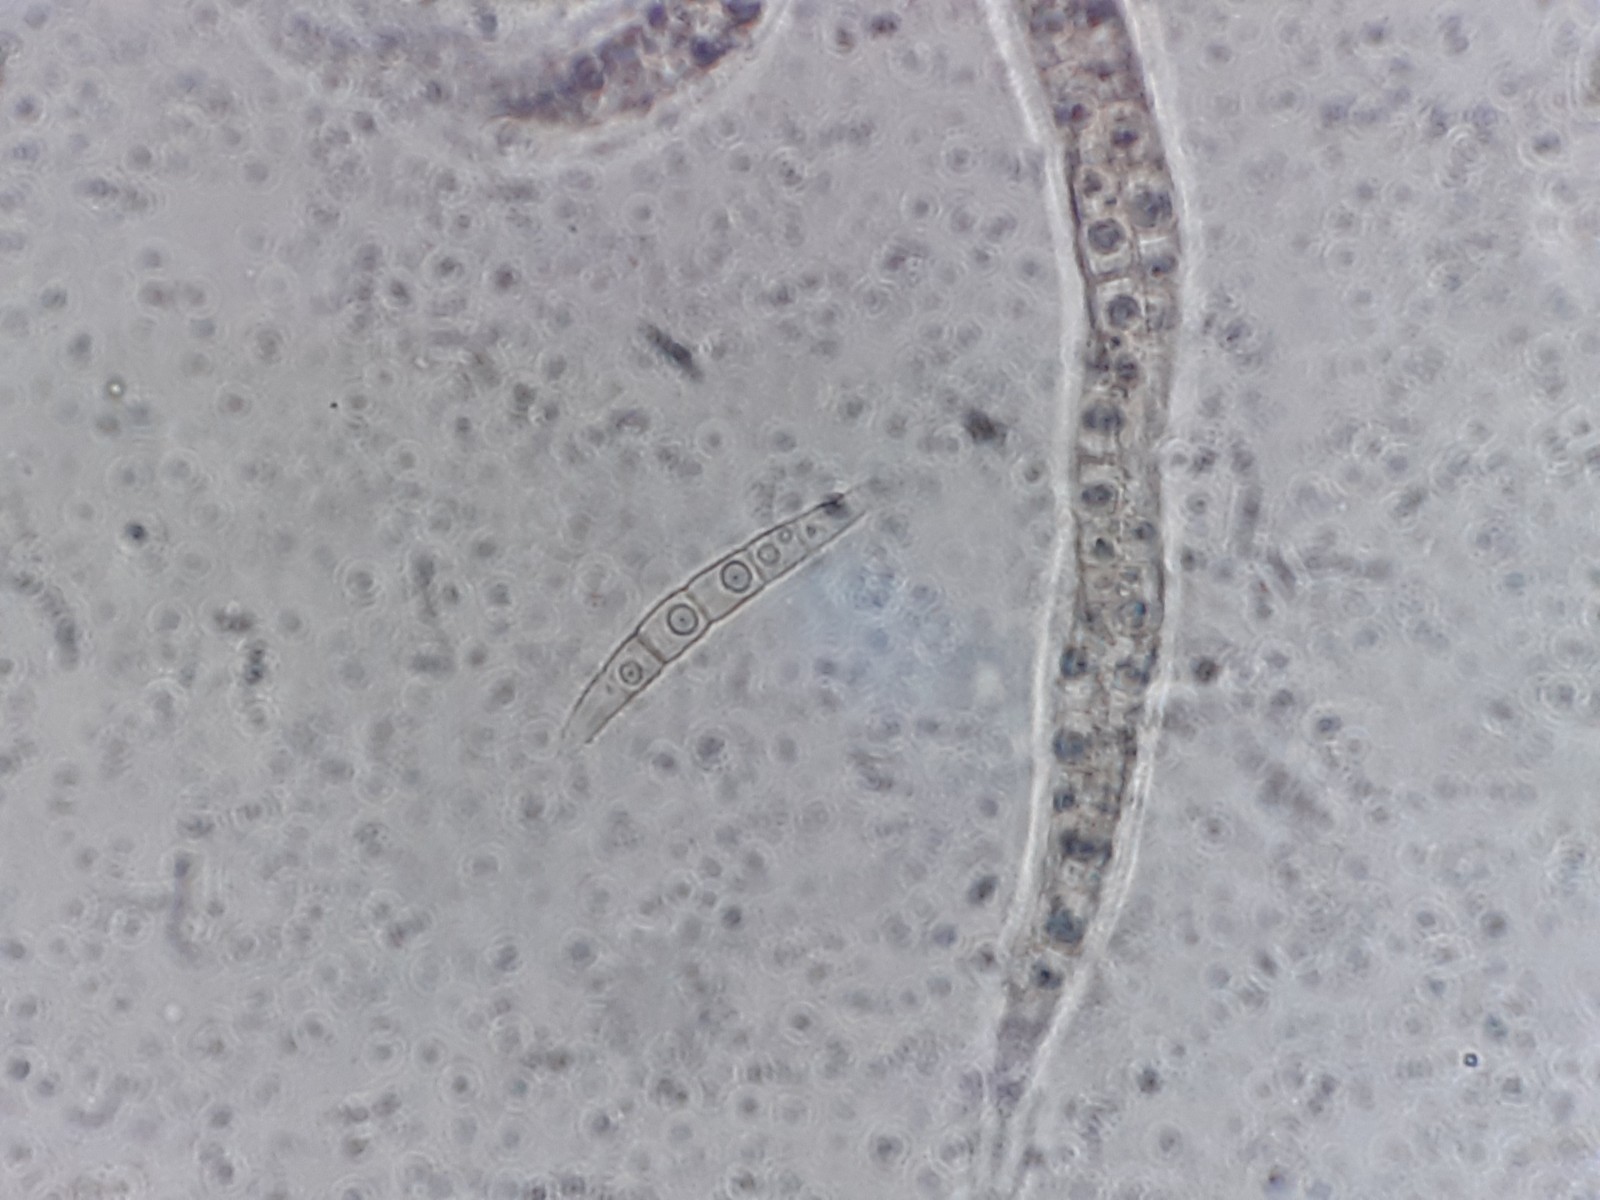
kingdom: Fungi
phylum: Ascomycota
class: Dothideomycetes
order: Pleosporales
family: Phaeosphaeriaceae
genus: Phaeosphaeria
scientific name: Phaeosphaeria sowerbyi
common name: kål-kulkegle
